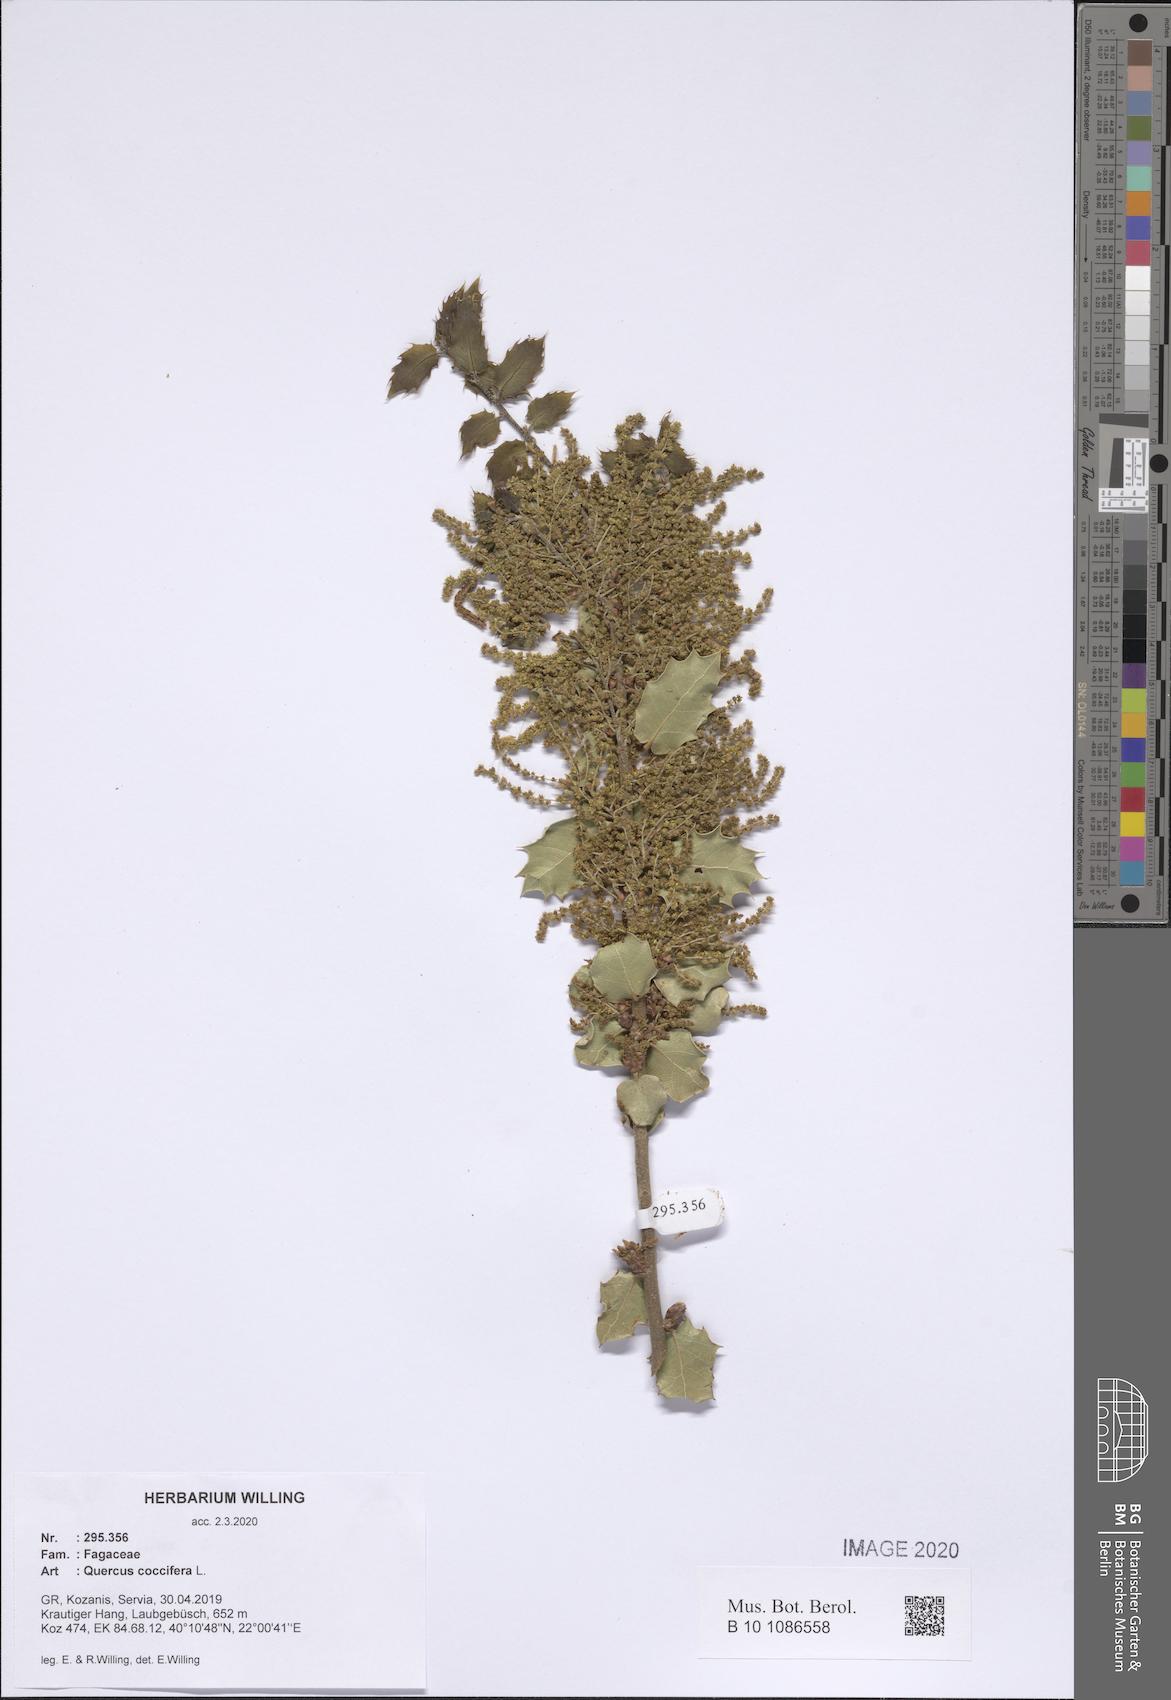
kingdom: Plantae
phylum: Tracheophyta
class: Magnoliopsida
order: Fagales
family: Fagaceae
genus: Quercus
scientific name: Quercus coccifera
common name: Kermes oak
